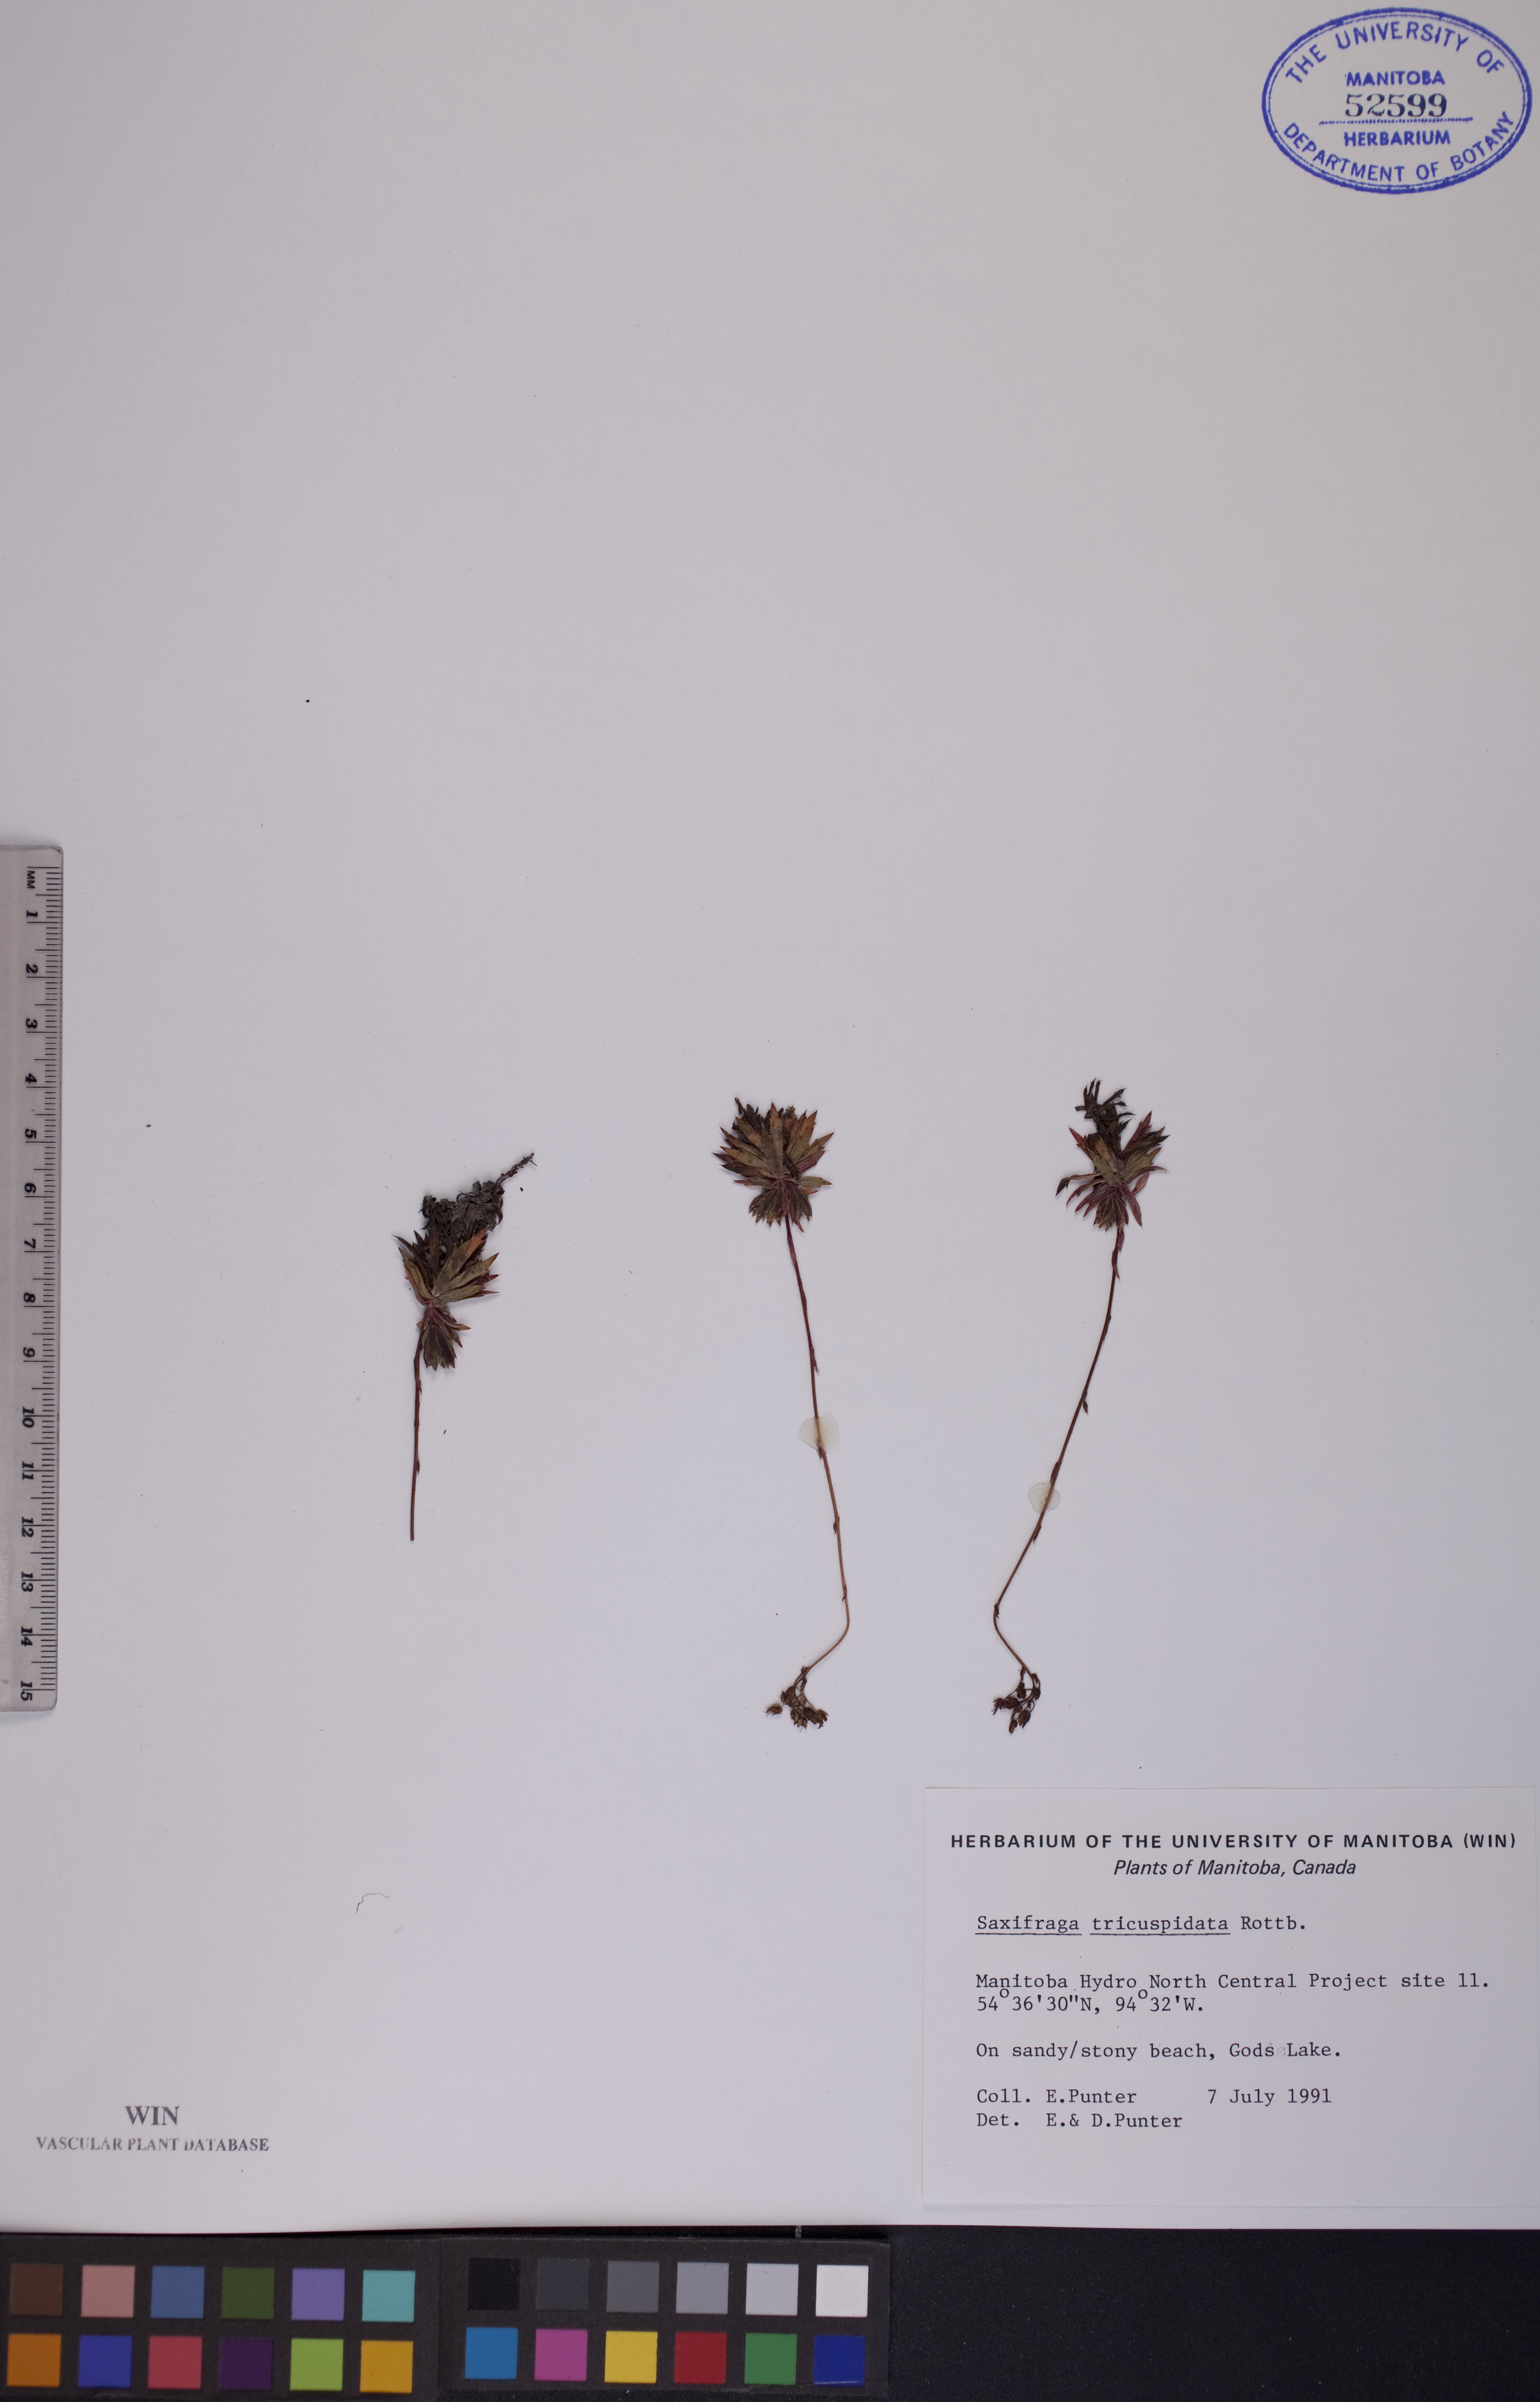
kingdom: Plantae
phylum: Tracheophyta
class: Magnoliopsida
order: Saxifragales
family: Saxifragaceae
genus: Saxifraga
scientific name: Saxifraga tricuspidata
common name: Prickly saxifrage
